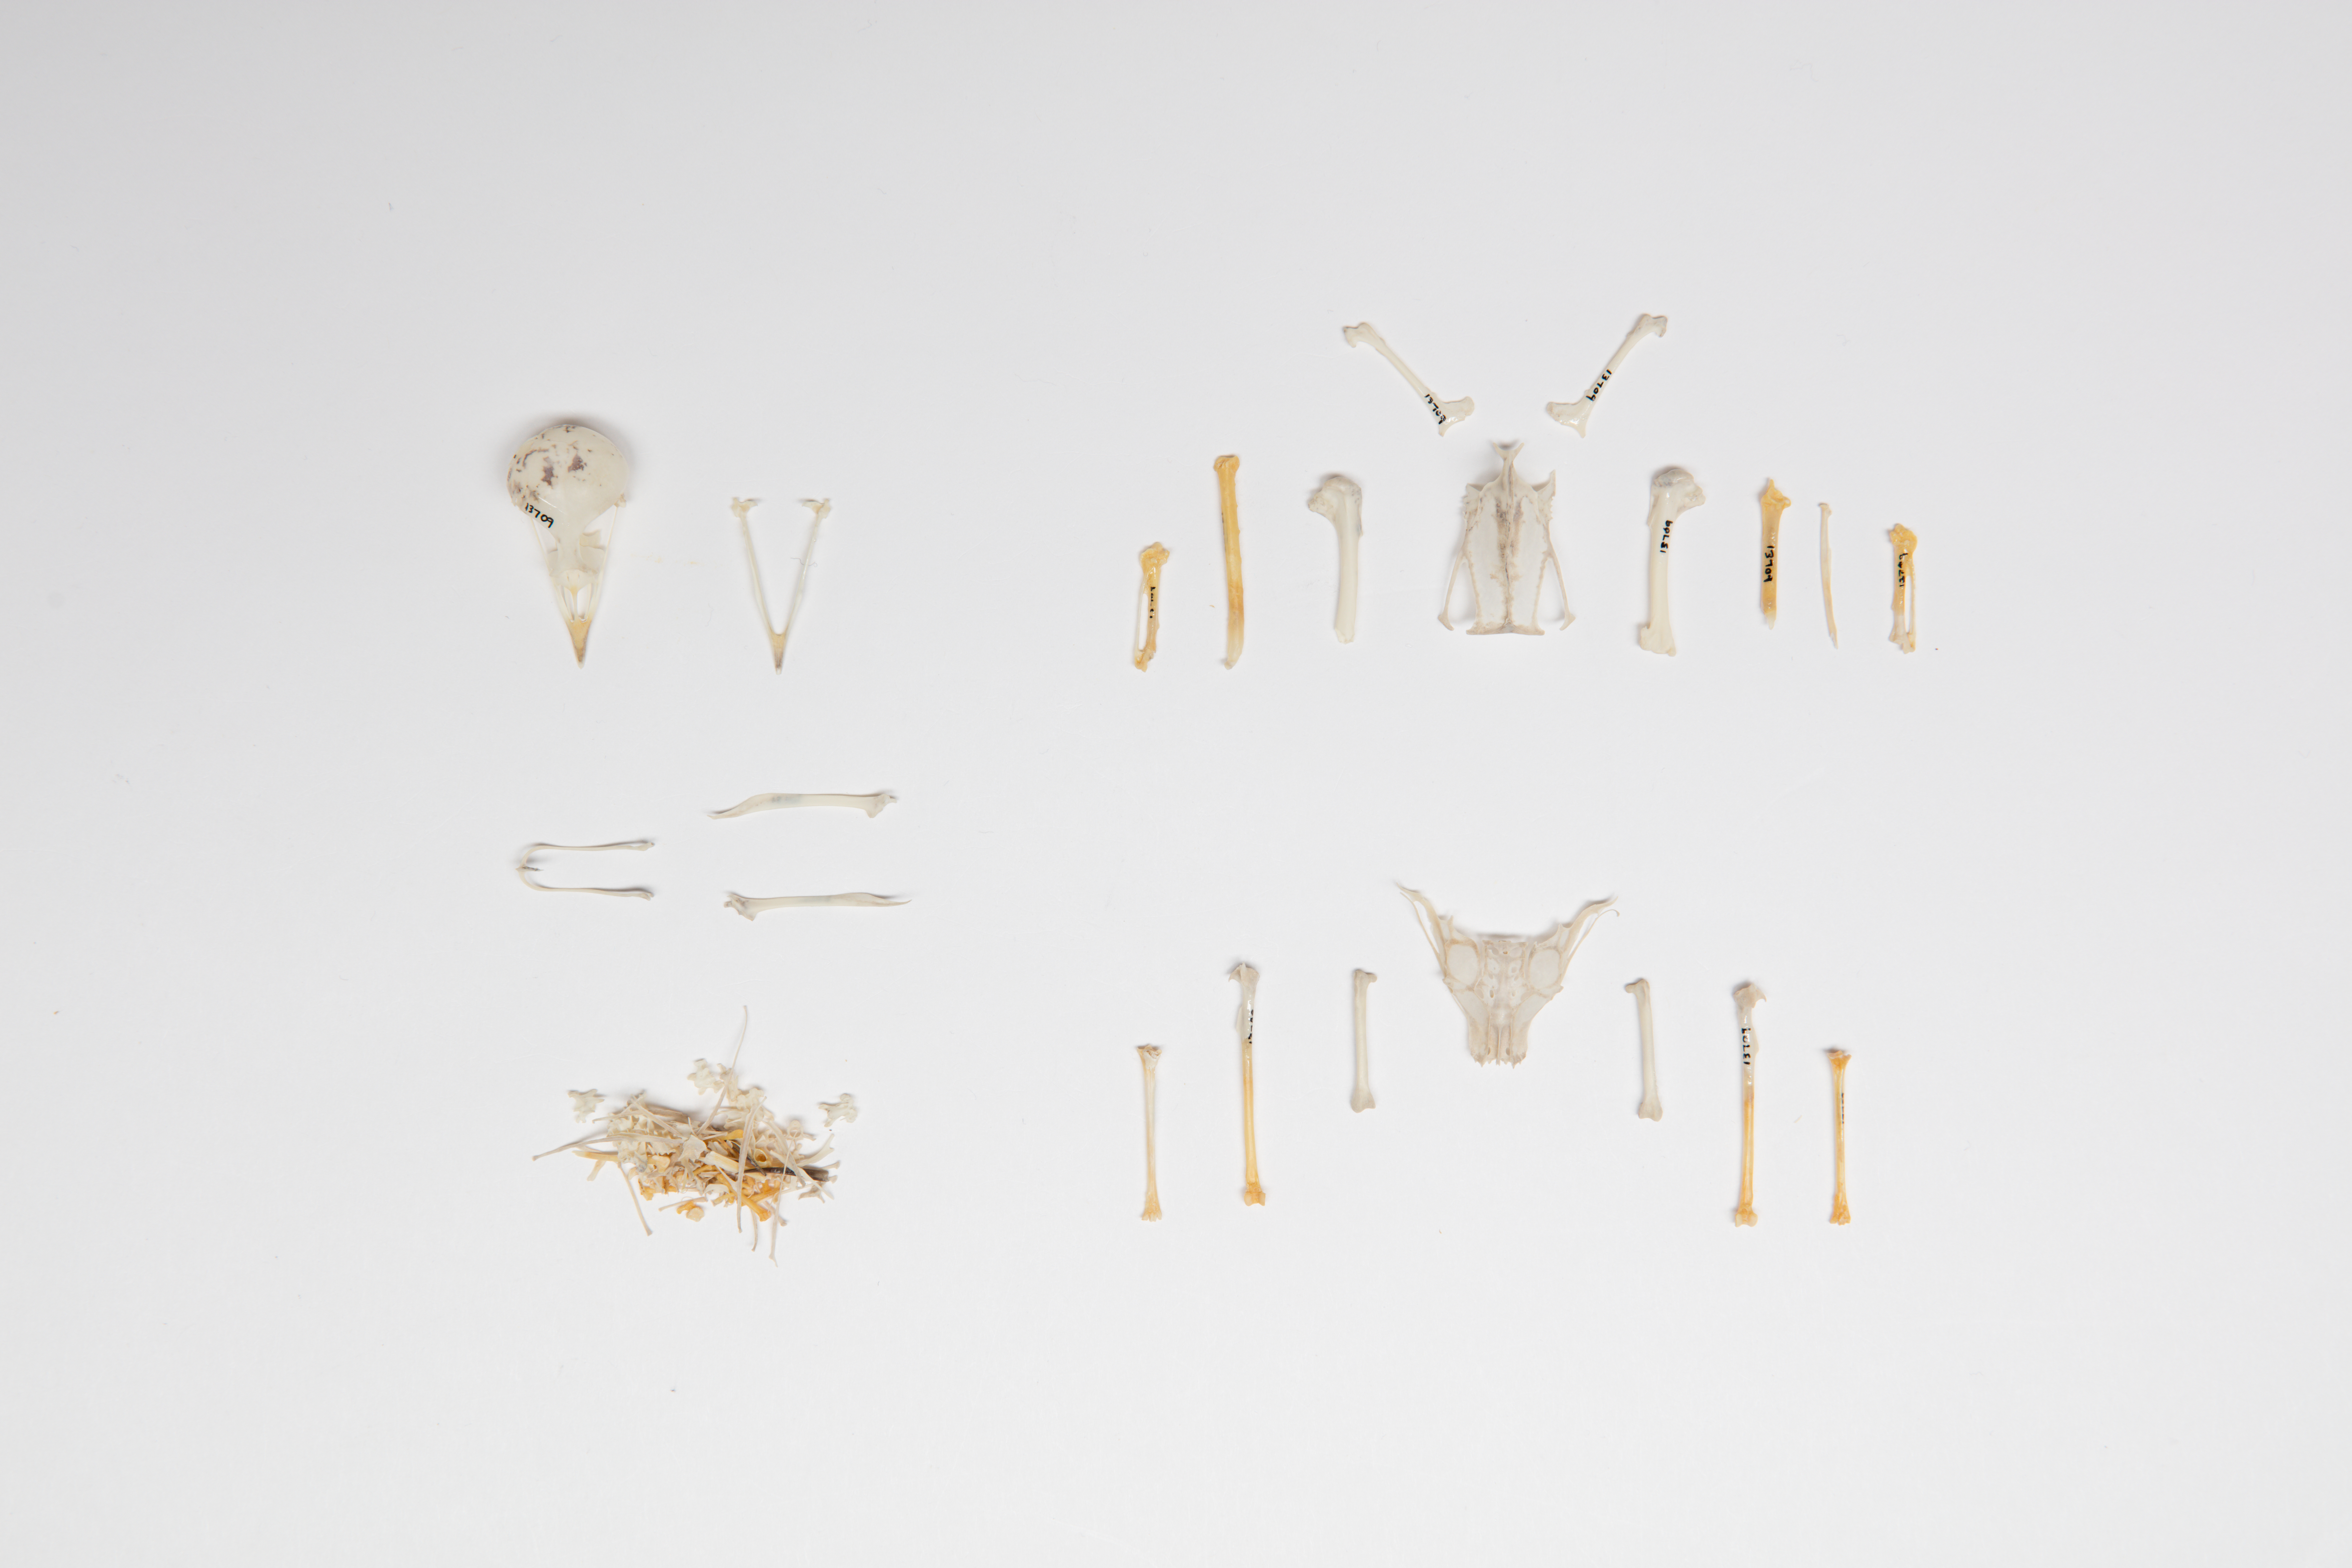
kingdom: Animalia
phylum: Chordata
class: Aves
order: Passeriformes
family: Alaudidae
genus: Alauda
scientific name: Alauda arvensis
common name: Eurasian skylark
